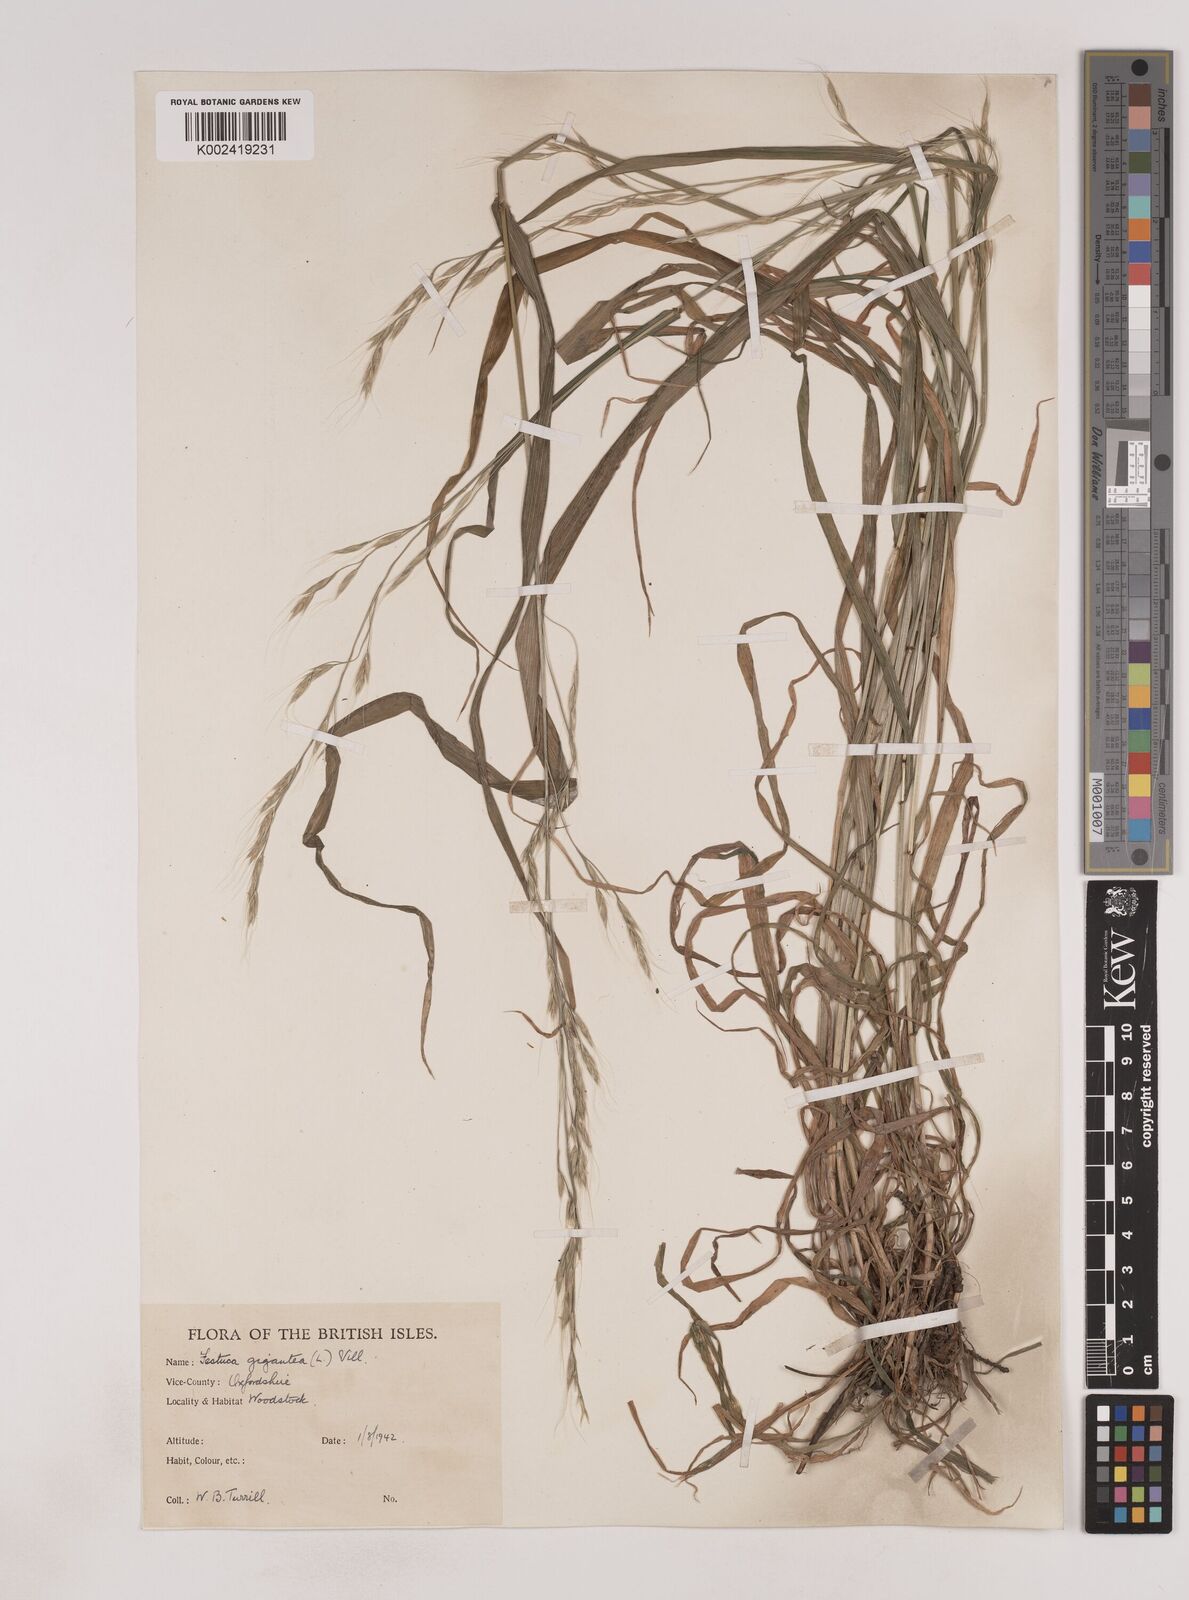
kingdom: Plantae
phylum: Tracheophyta
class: Liliopsida
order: Poales
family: Poaceae
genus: Lolium
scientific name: Lolium giganteum
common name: Giant fescue
